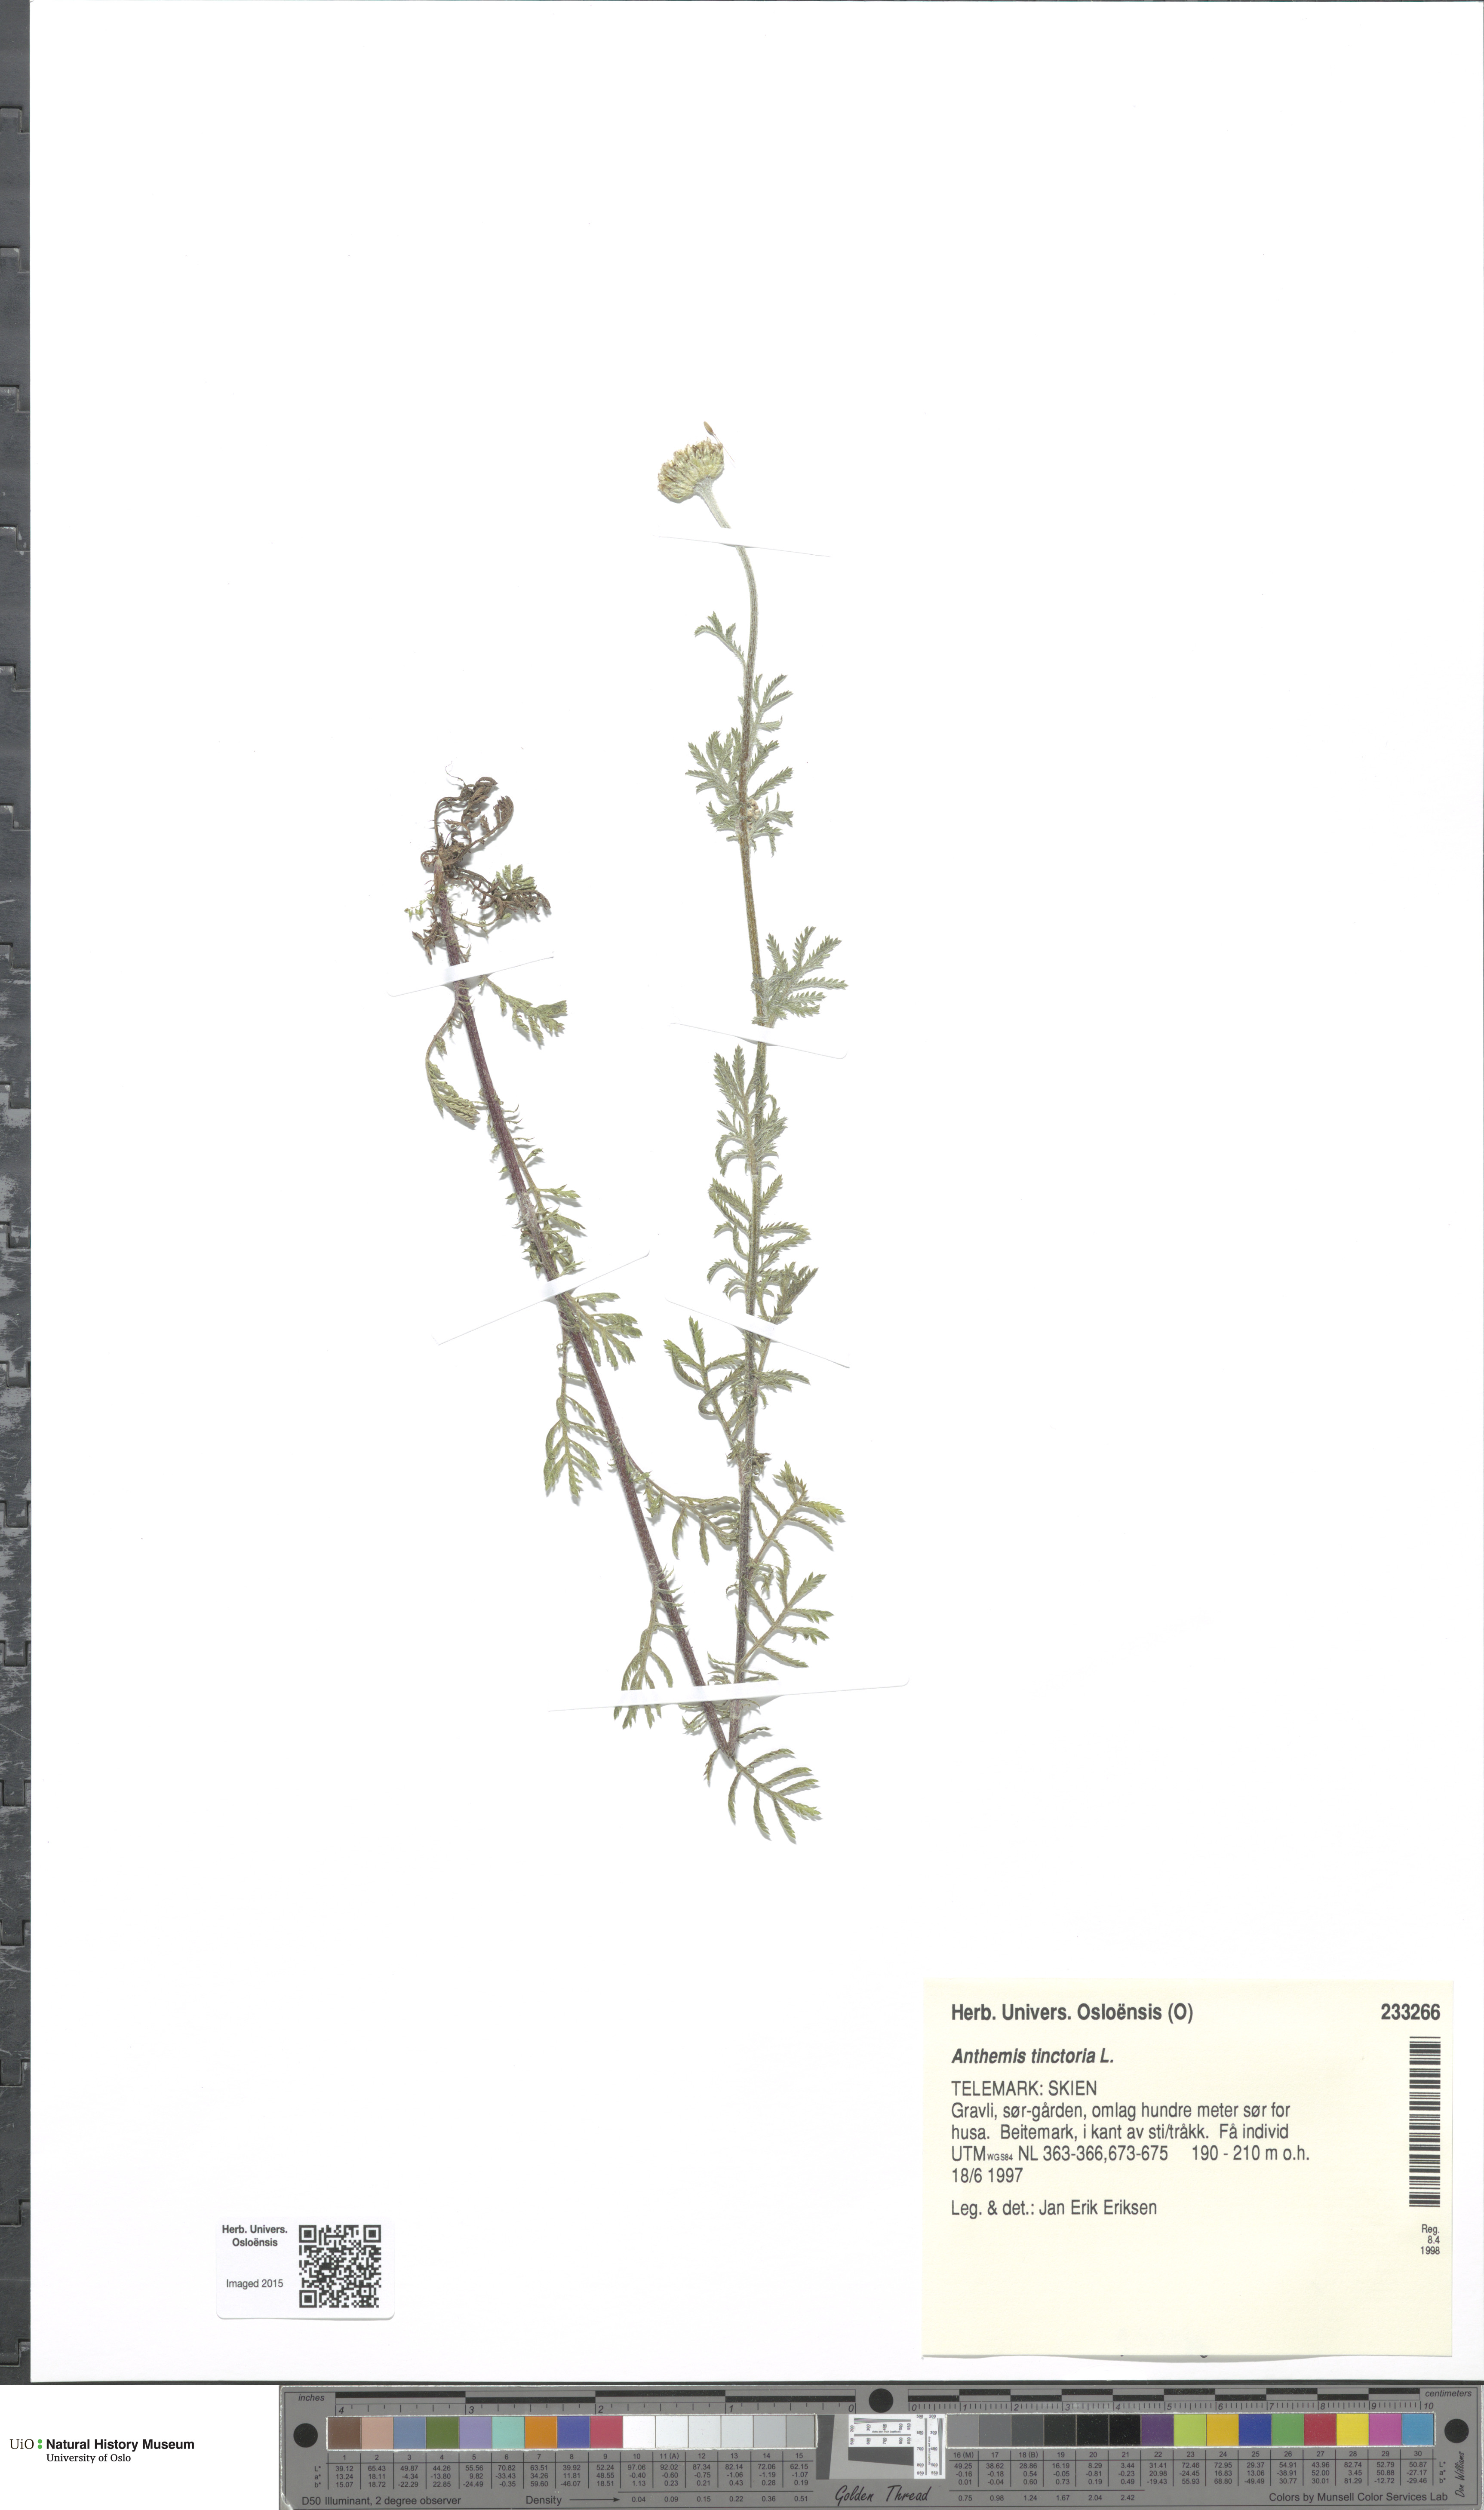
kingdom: Plantae
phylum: Tracheophyta
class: Magnoliopsida
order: Asterales
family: Asteraceae
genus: Cota
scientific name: Cota tinctoria
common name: Golden chamomile
